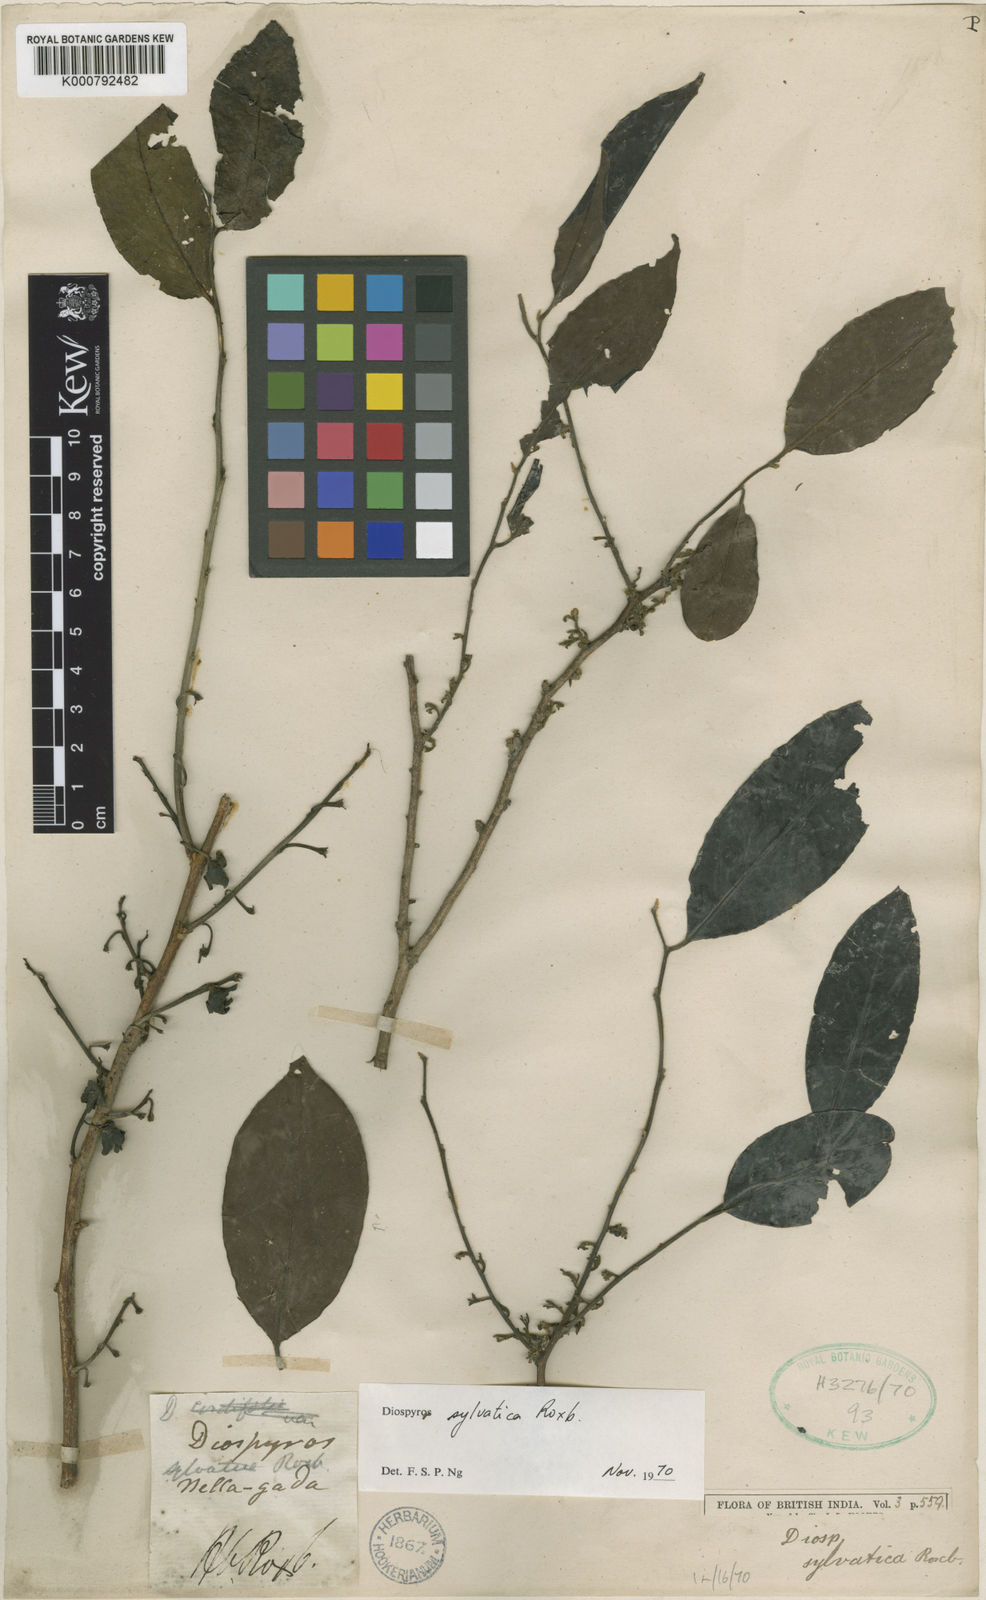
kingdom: Plantae
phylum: Tracheophyta
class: Magnoliopsida
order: Ericales
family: Ebenaceae
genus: Diospyros
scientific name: Diospyros sylvatica
